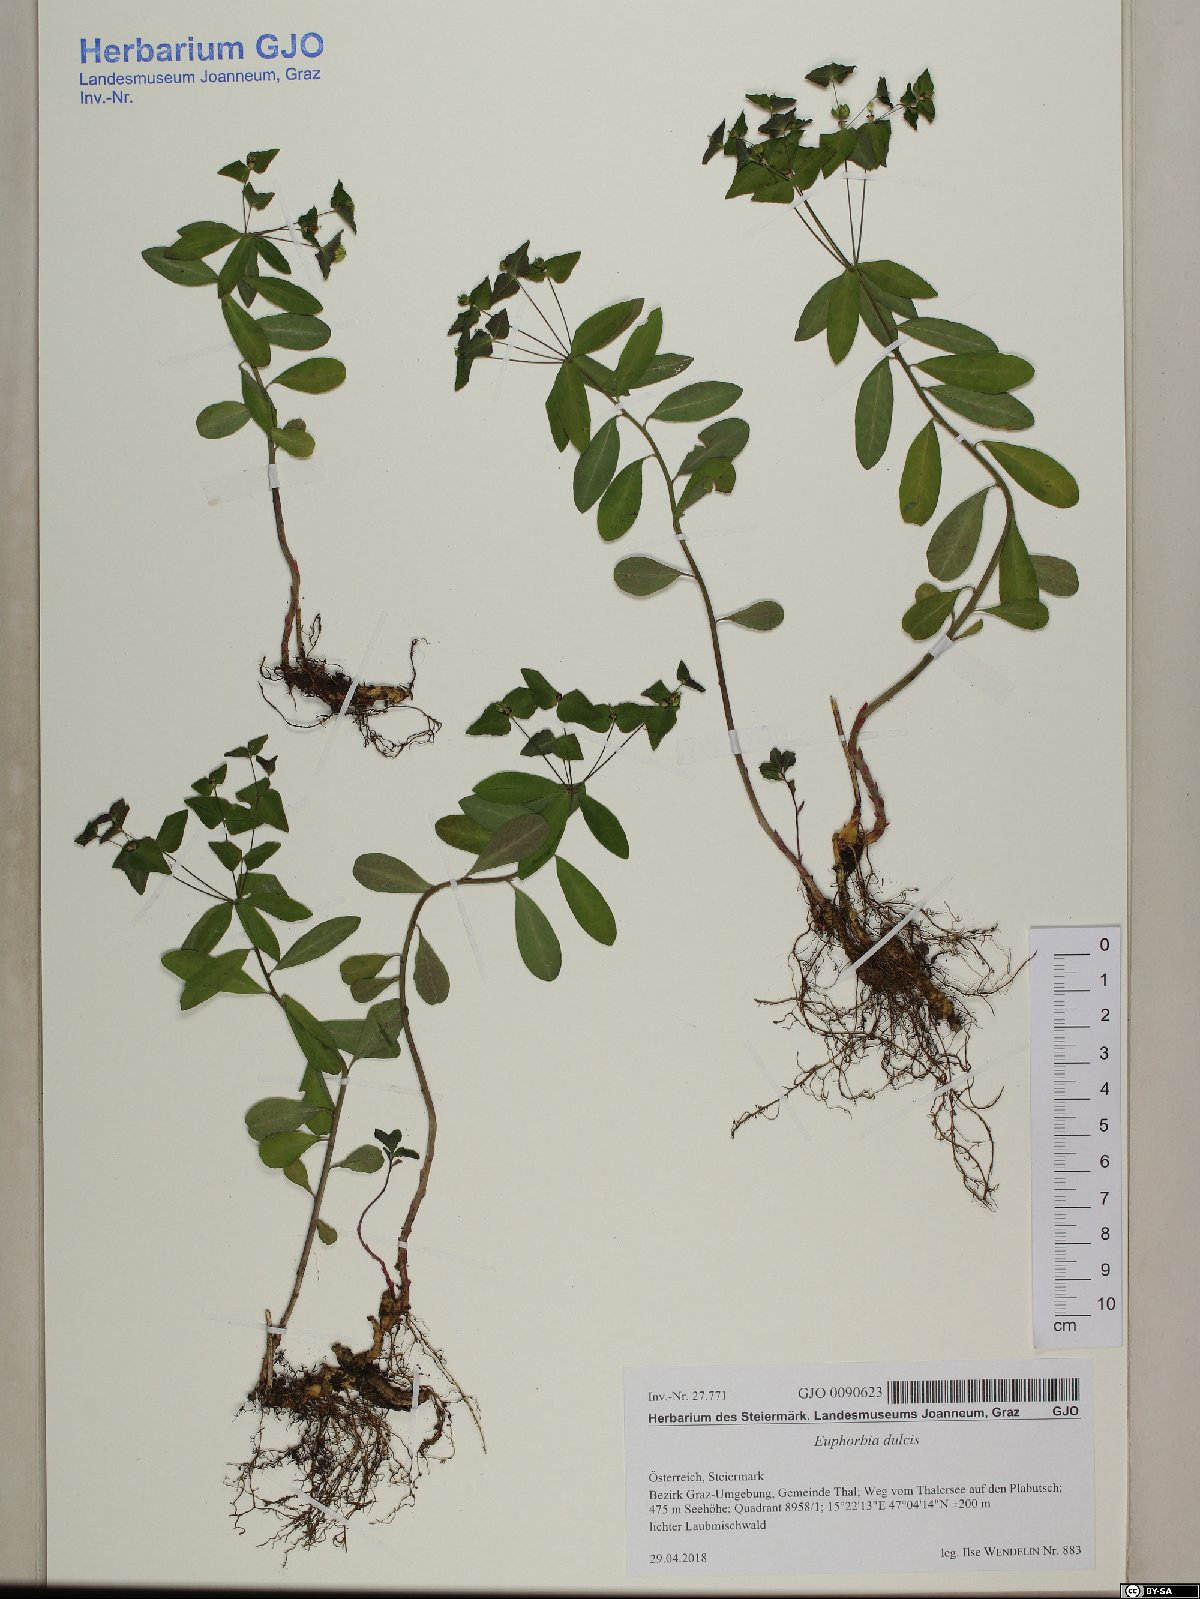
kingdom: Plantae
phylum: Tracheophyta
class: Magnoliopsida
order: Malpighiales
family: Euphorbiaceae
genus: Euphorbia
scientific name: Euphorbia dulcis
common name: Sweet spurge
